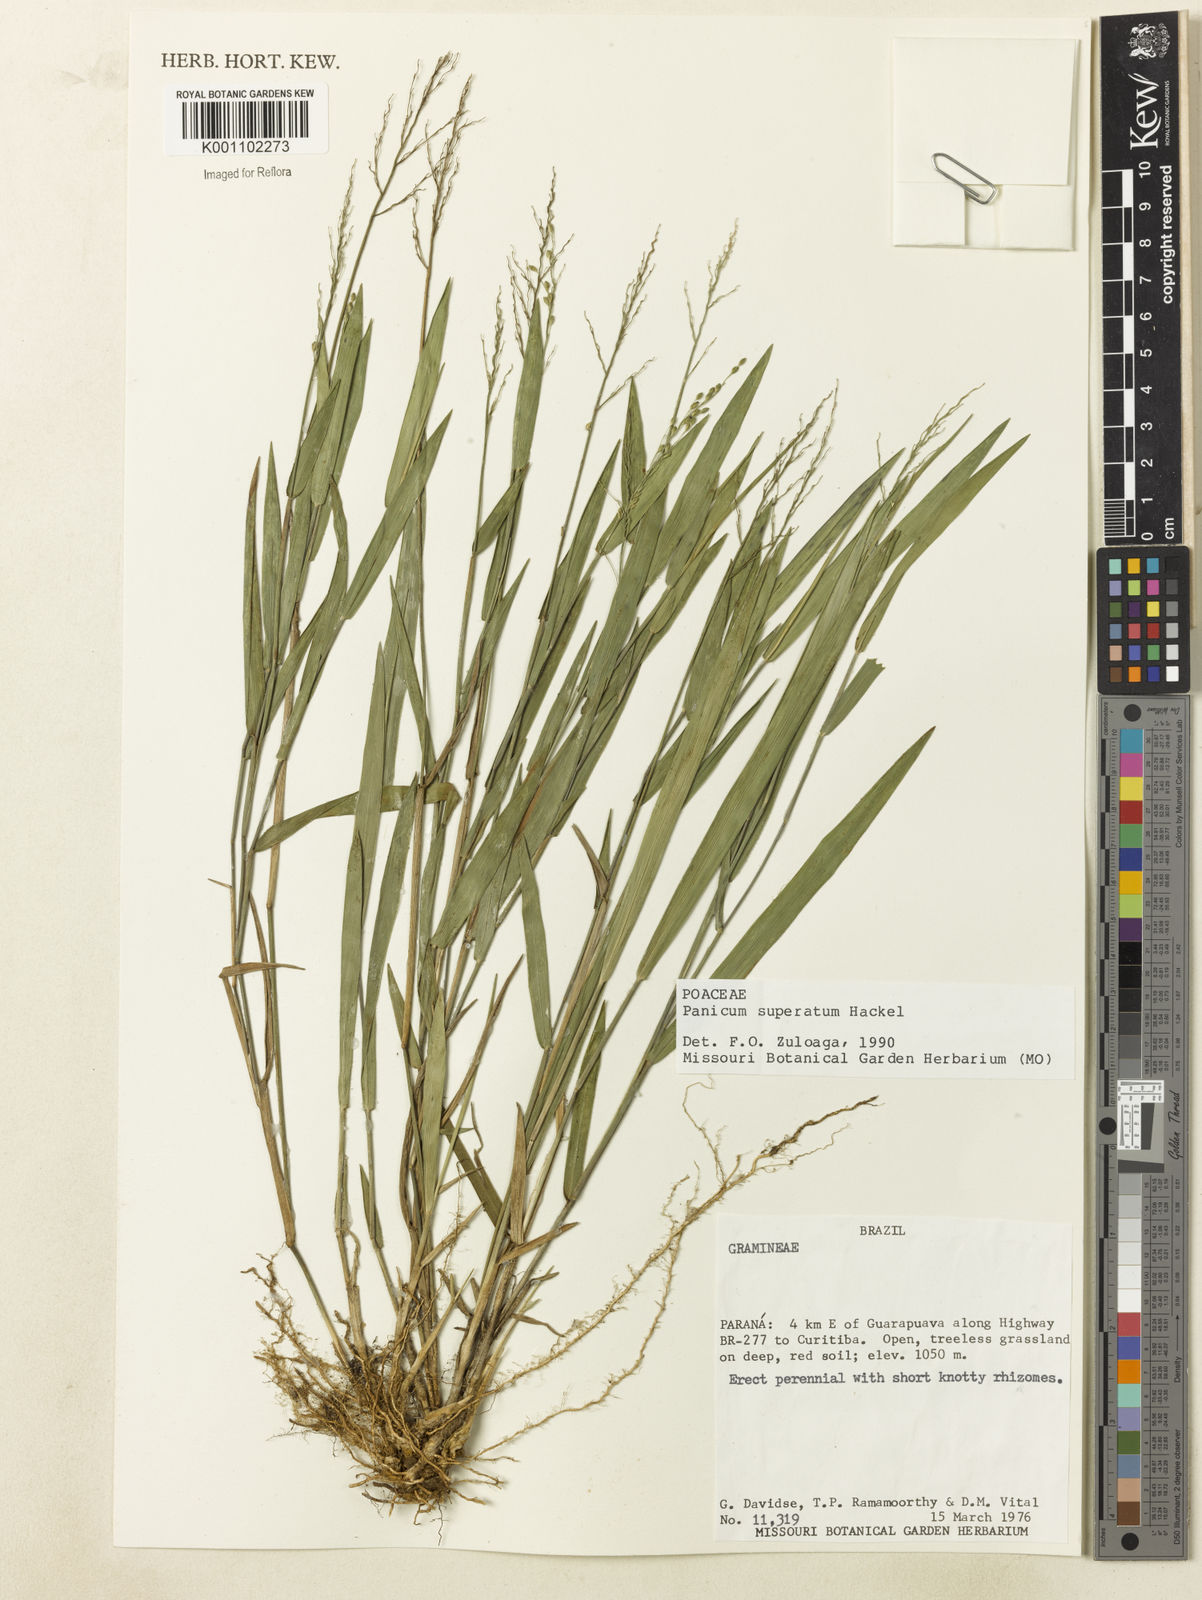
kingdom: Plantae
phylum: Tracheophyta
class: Liliopsida
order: Poales
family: Poaceae
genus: Dichanthelium
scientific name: Dichanthelium superatum
